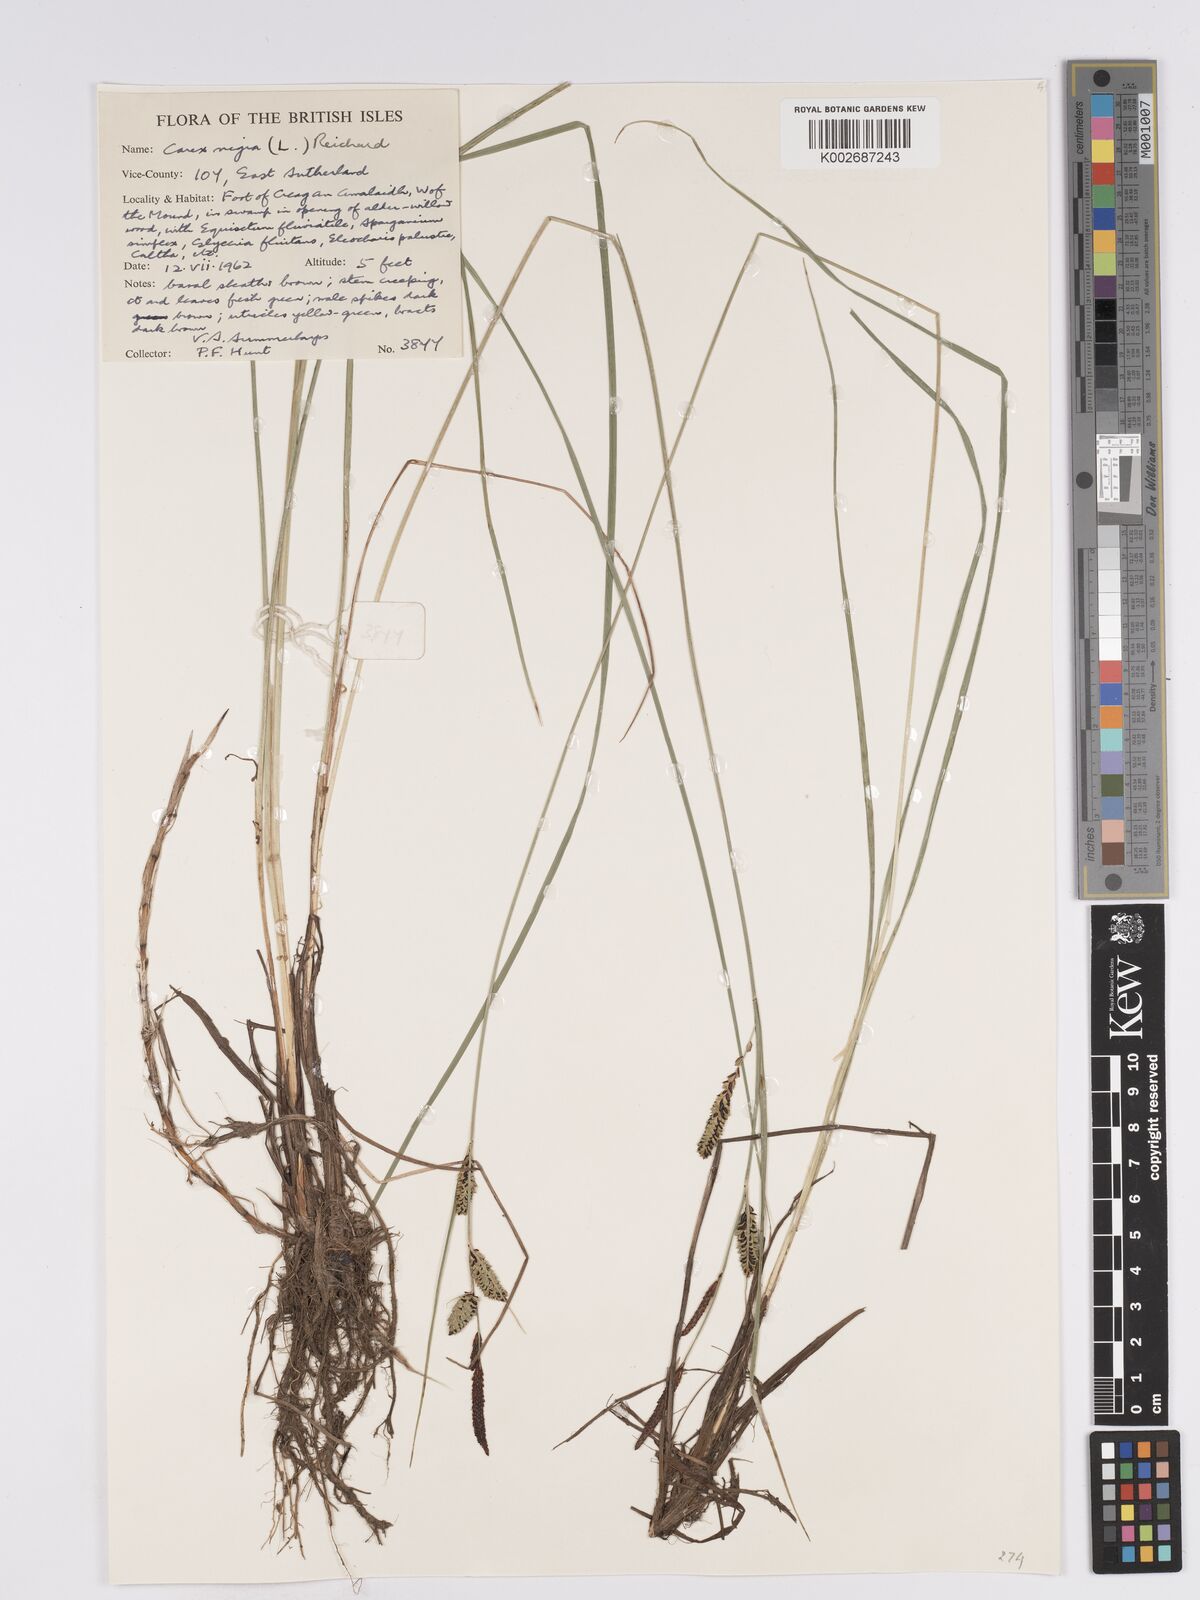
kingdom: Plantae
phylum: Tracheophyta
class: Liliopsida
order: Poales
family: Cyperaceae
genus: Carex
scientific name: Carex nigra
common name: Common sedge
